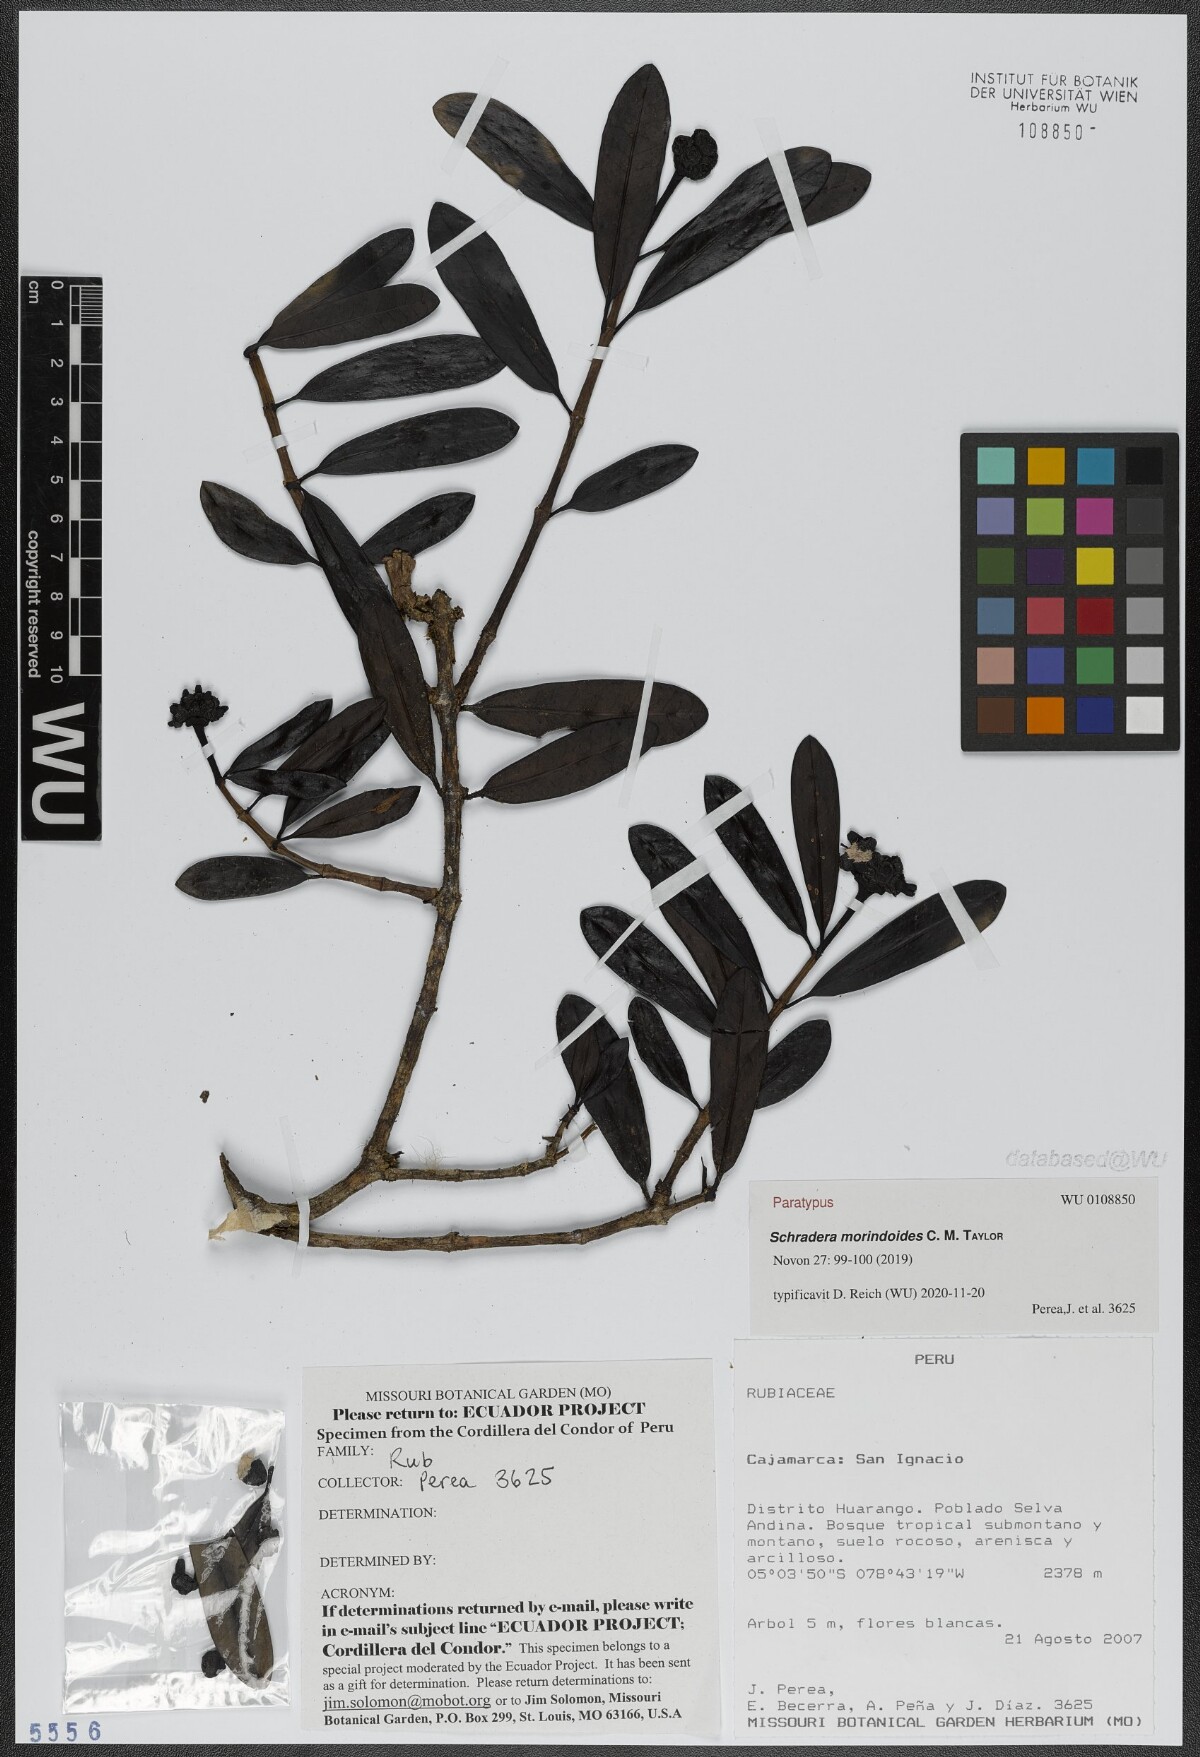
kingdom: Plantae
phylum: Tracheophyta
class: Magnoliopsida
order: Gentianales
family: Rubiaceae
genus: Schradera
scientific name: Schradera morindoides
